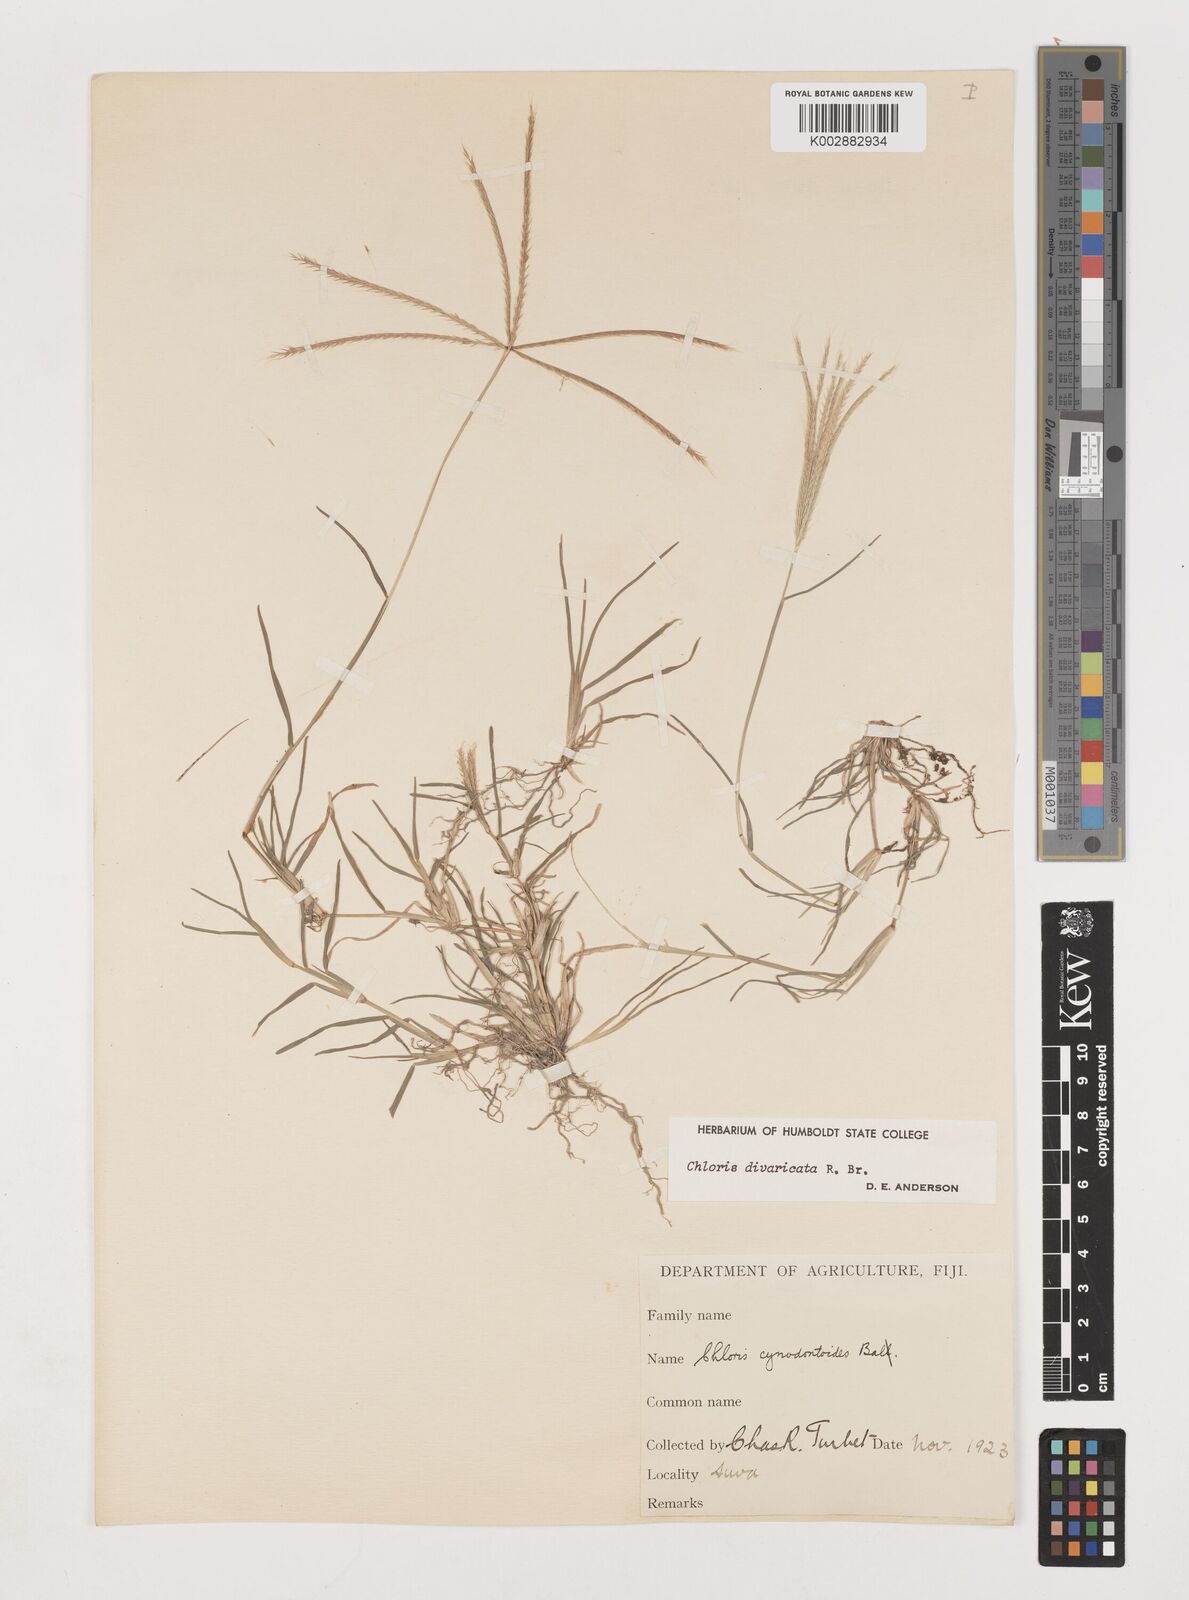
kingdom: Plantae
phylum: Tracheophyta
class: Liliopsida
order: Poales
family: Poaceae
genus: Chloris
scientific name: Chloris divaricata
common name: Spreading windmill grass
